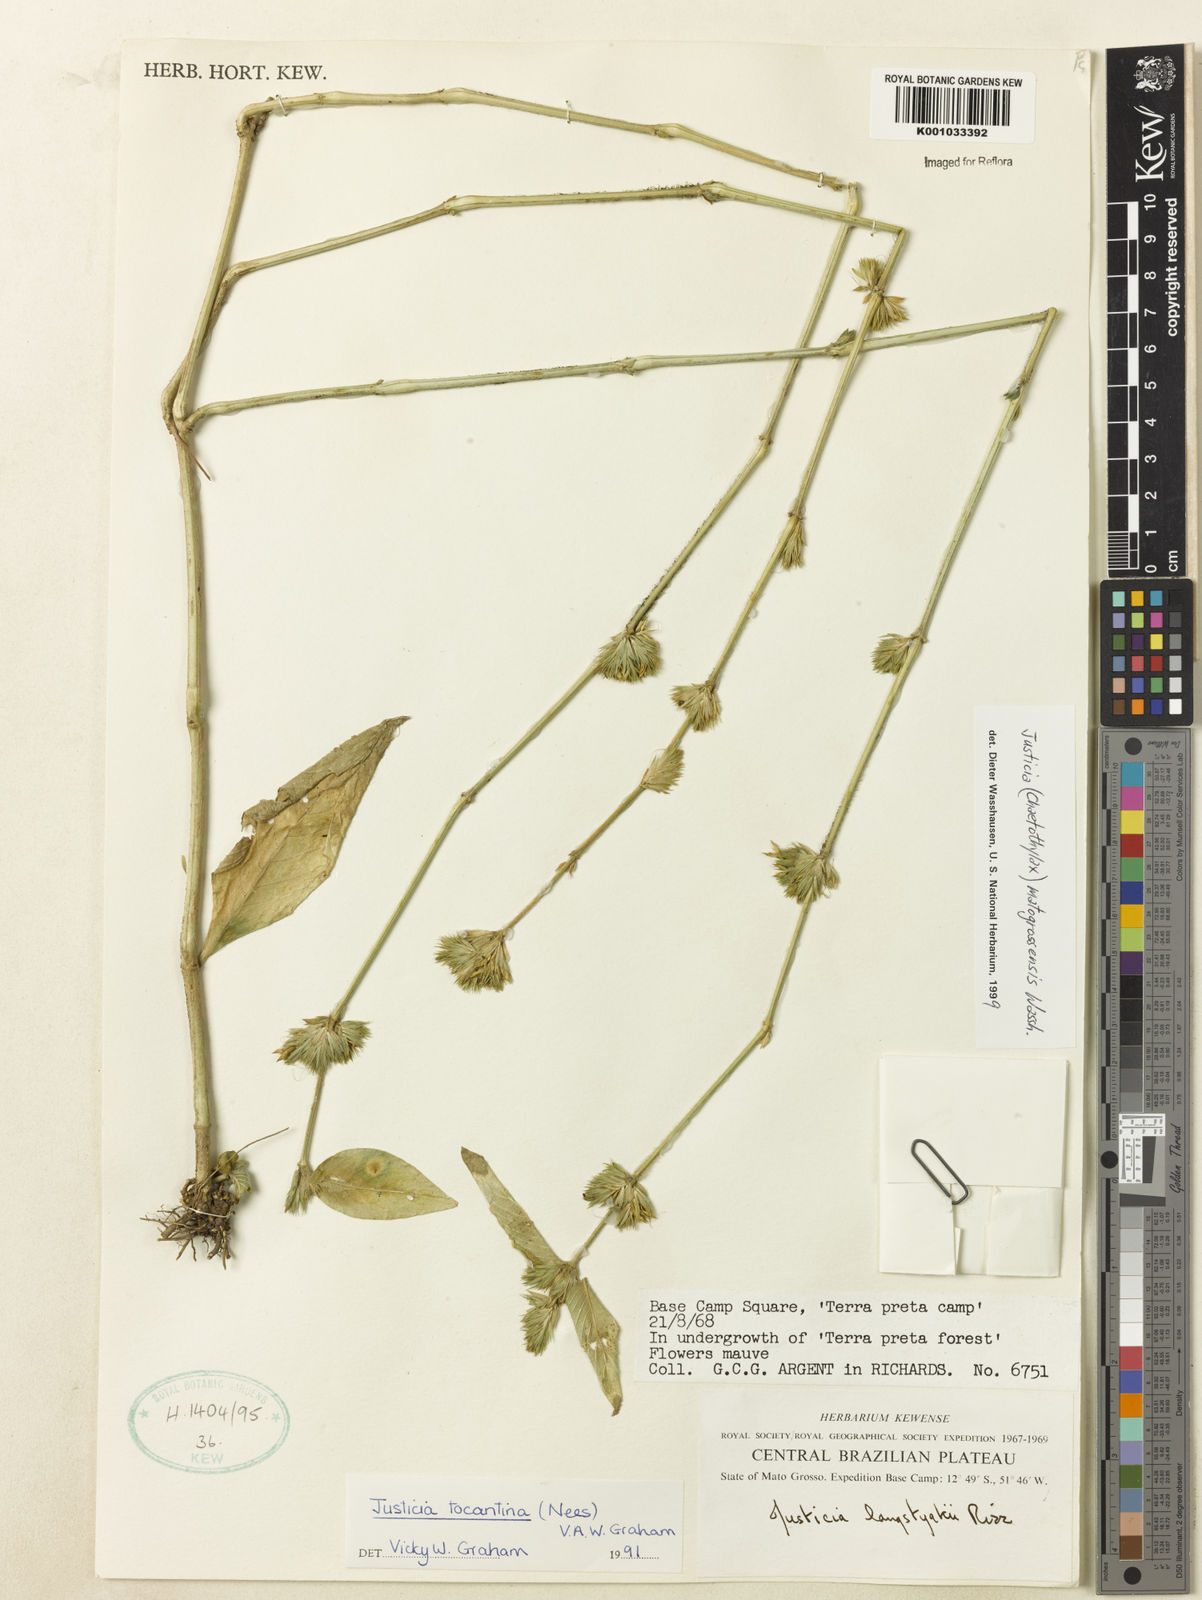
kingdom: Plantae
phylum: Tracheophyta
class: Magnoliopsida
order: Lamiales
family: Acanthaceae
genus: Justicia
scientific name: Justicia matogrossensis
